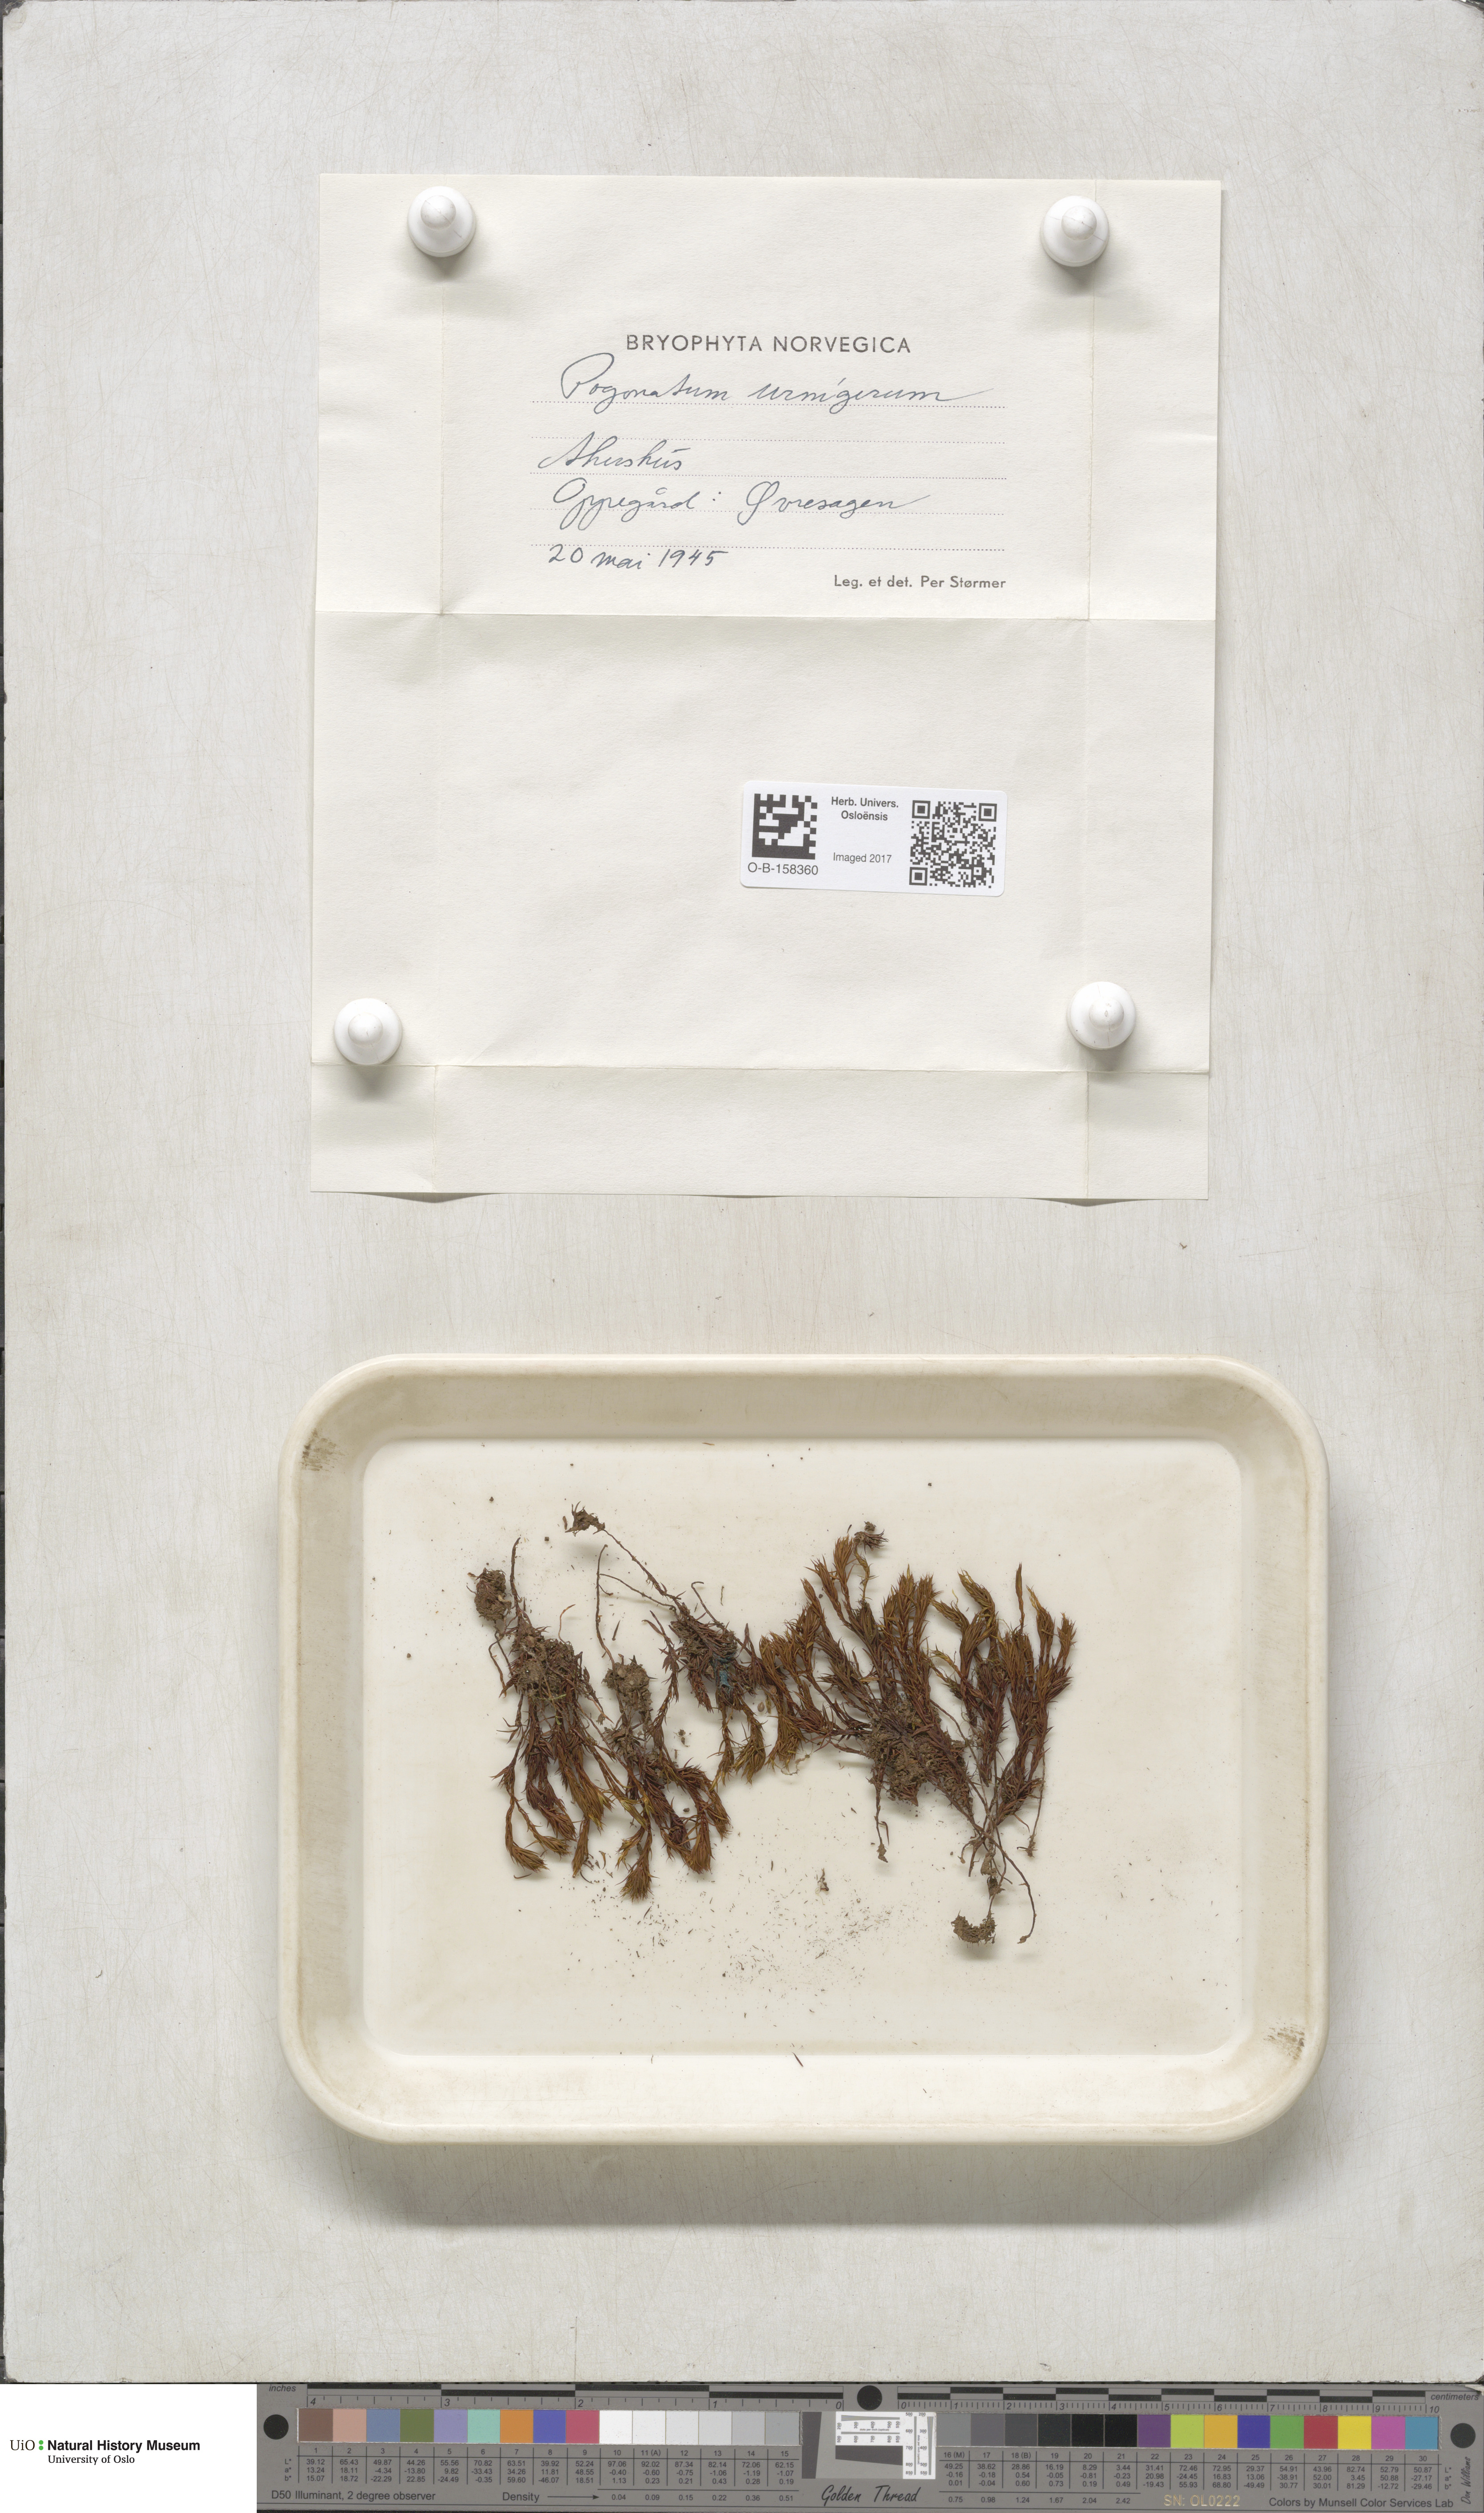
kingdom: Plantae
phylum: Bryophyta
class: Polytrichopsida
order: Polytrichales
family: Polytrichaceae
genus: Pogonatum
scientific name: Pogonatum urnigerum
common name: Urn hair moss
